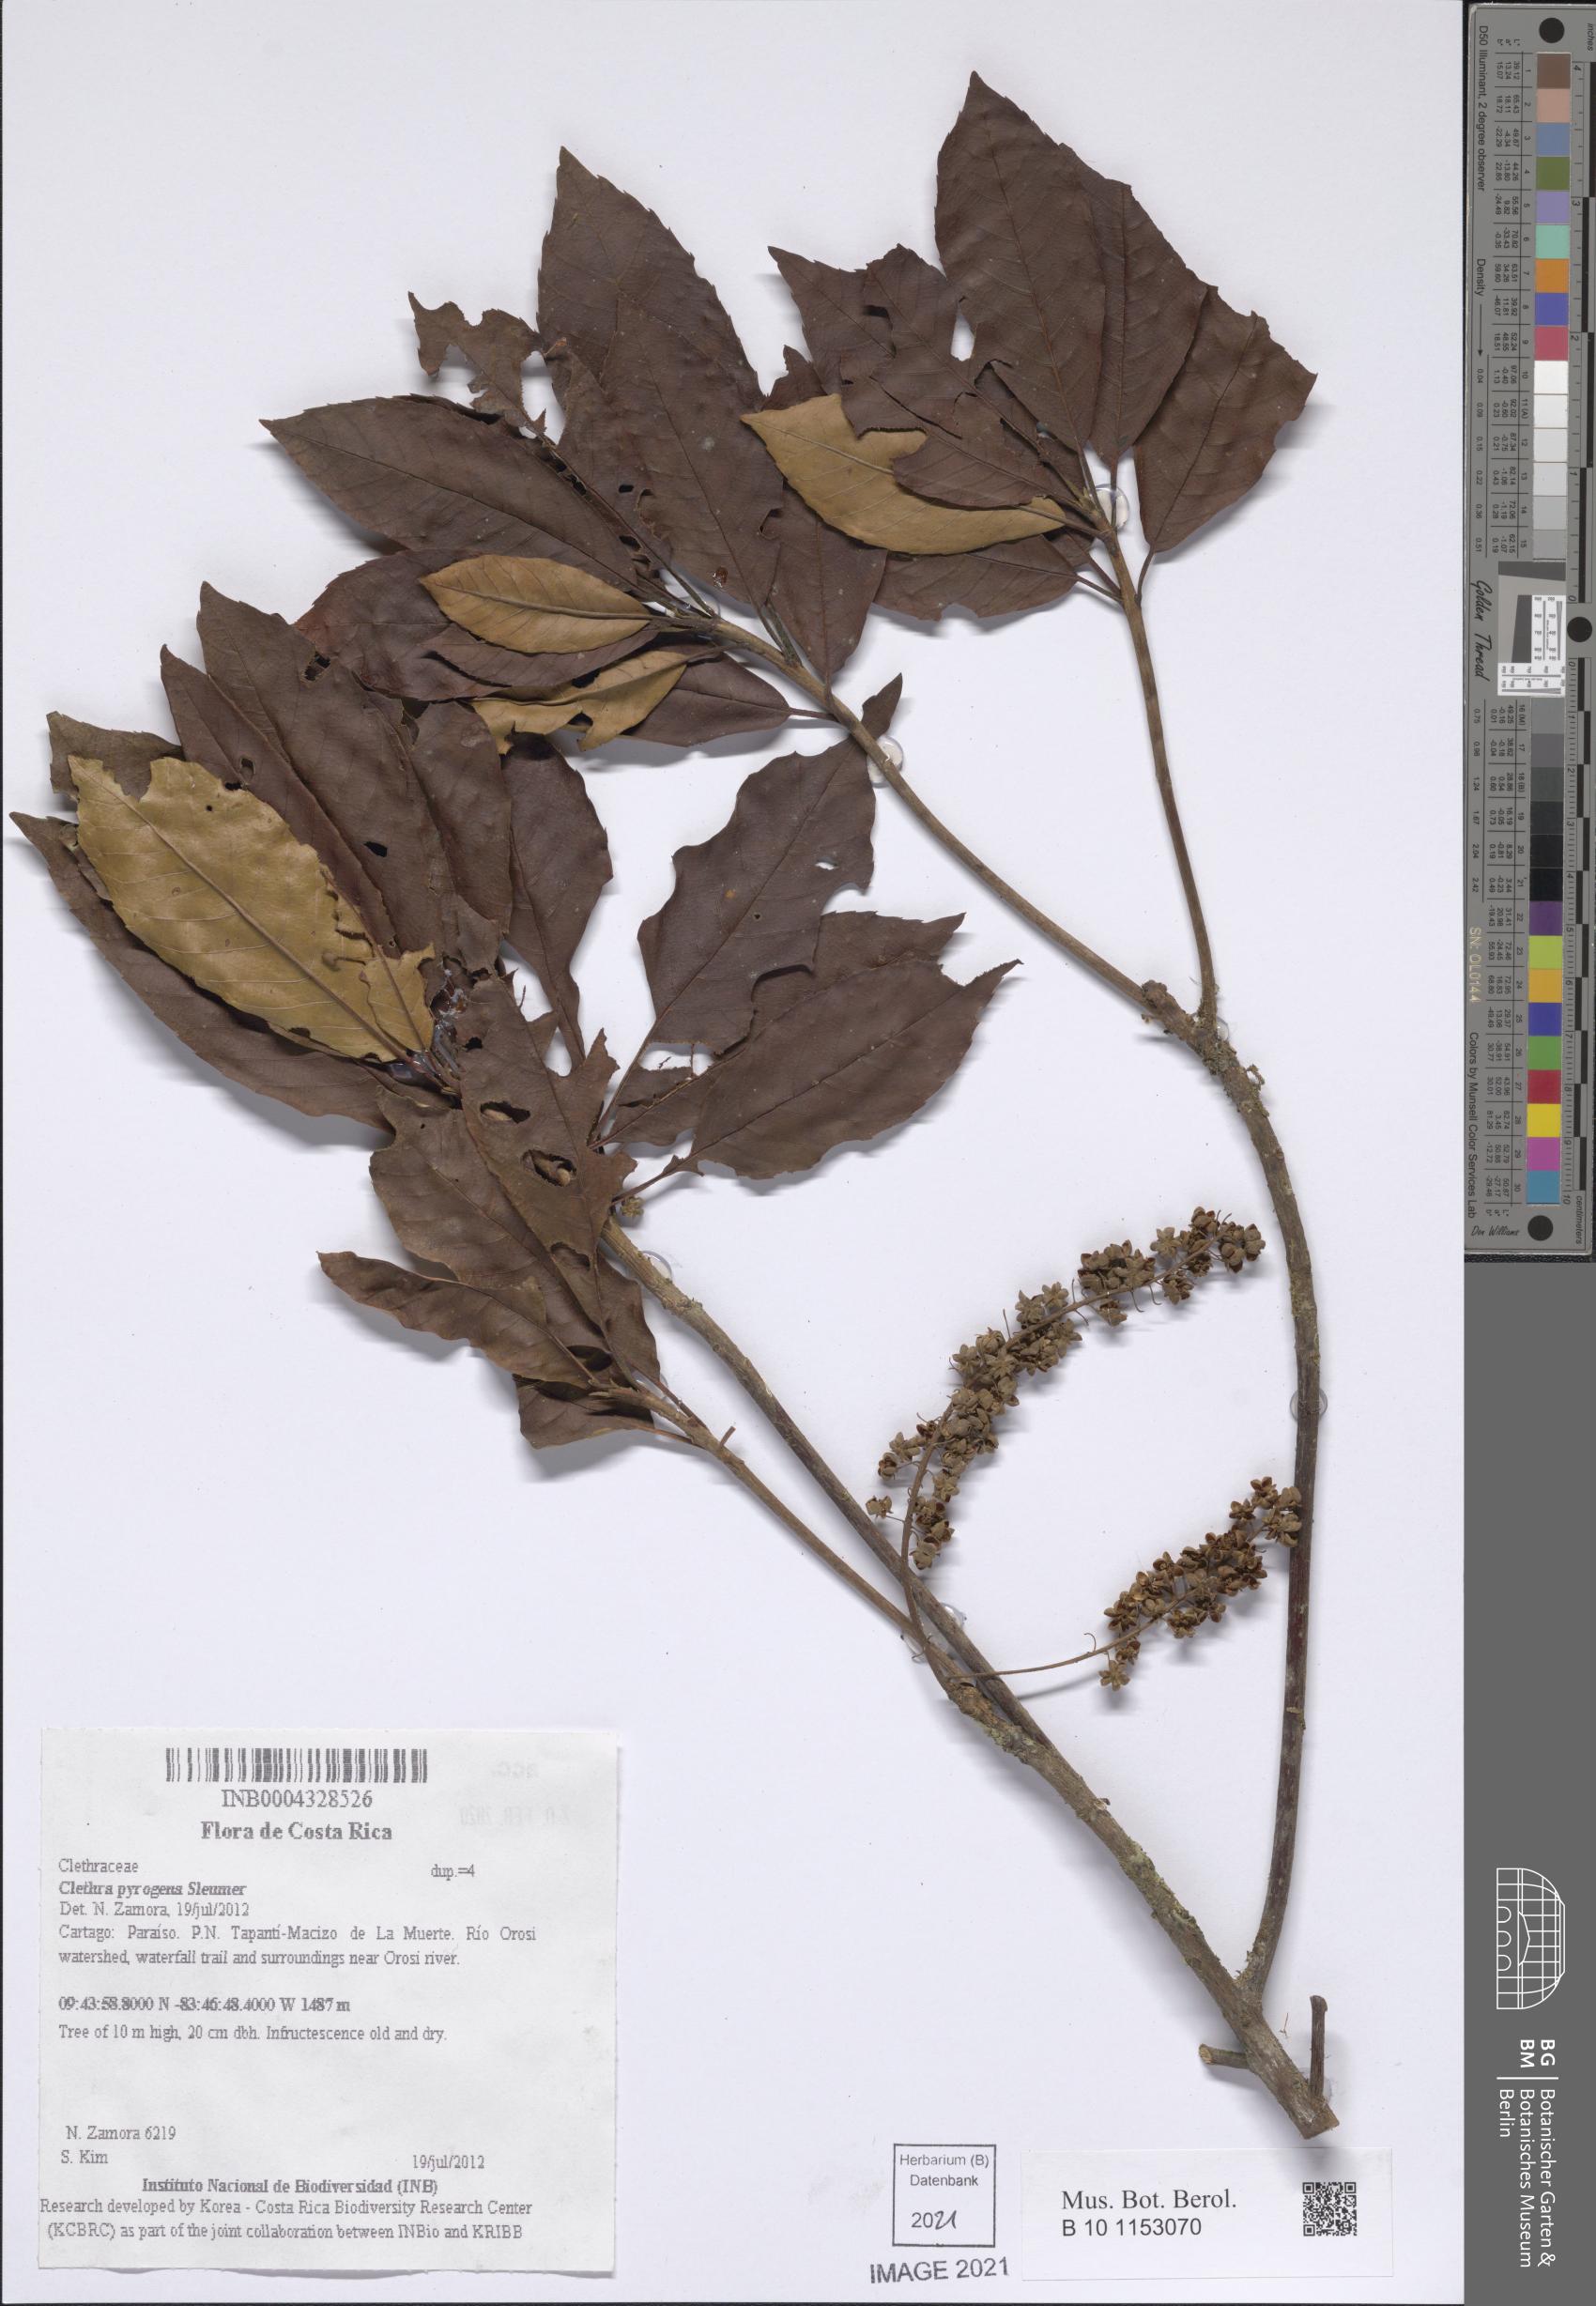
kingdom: Plantae
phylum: Tracheophyta
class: Magnoliopsida
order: Ericales
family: Clethraceae
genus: Clethra
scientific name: Clethra pyrogena
